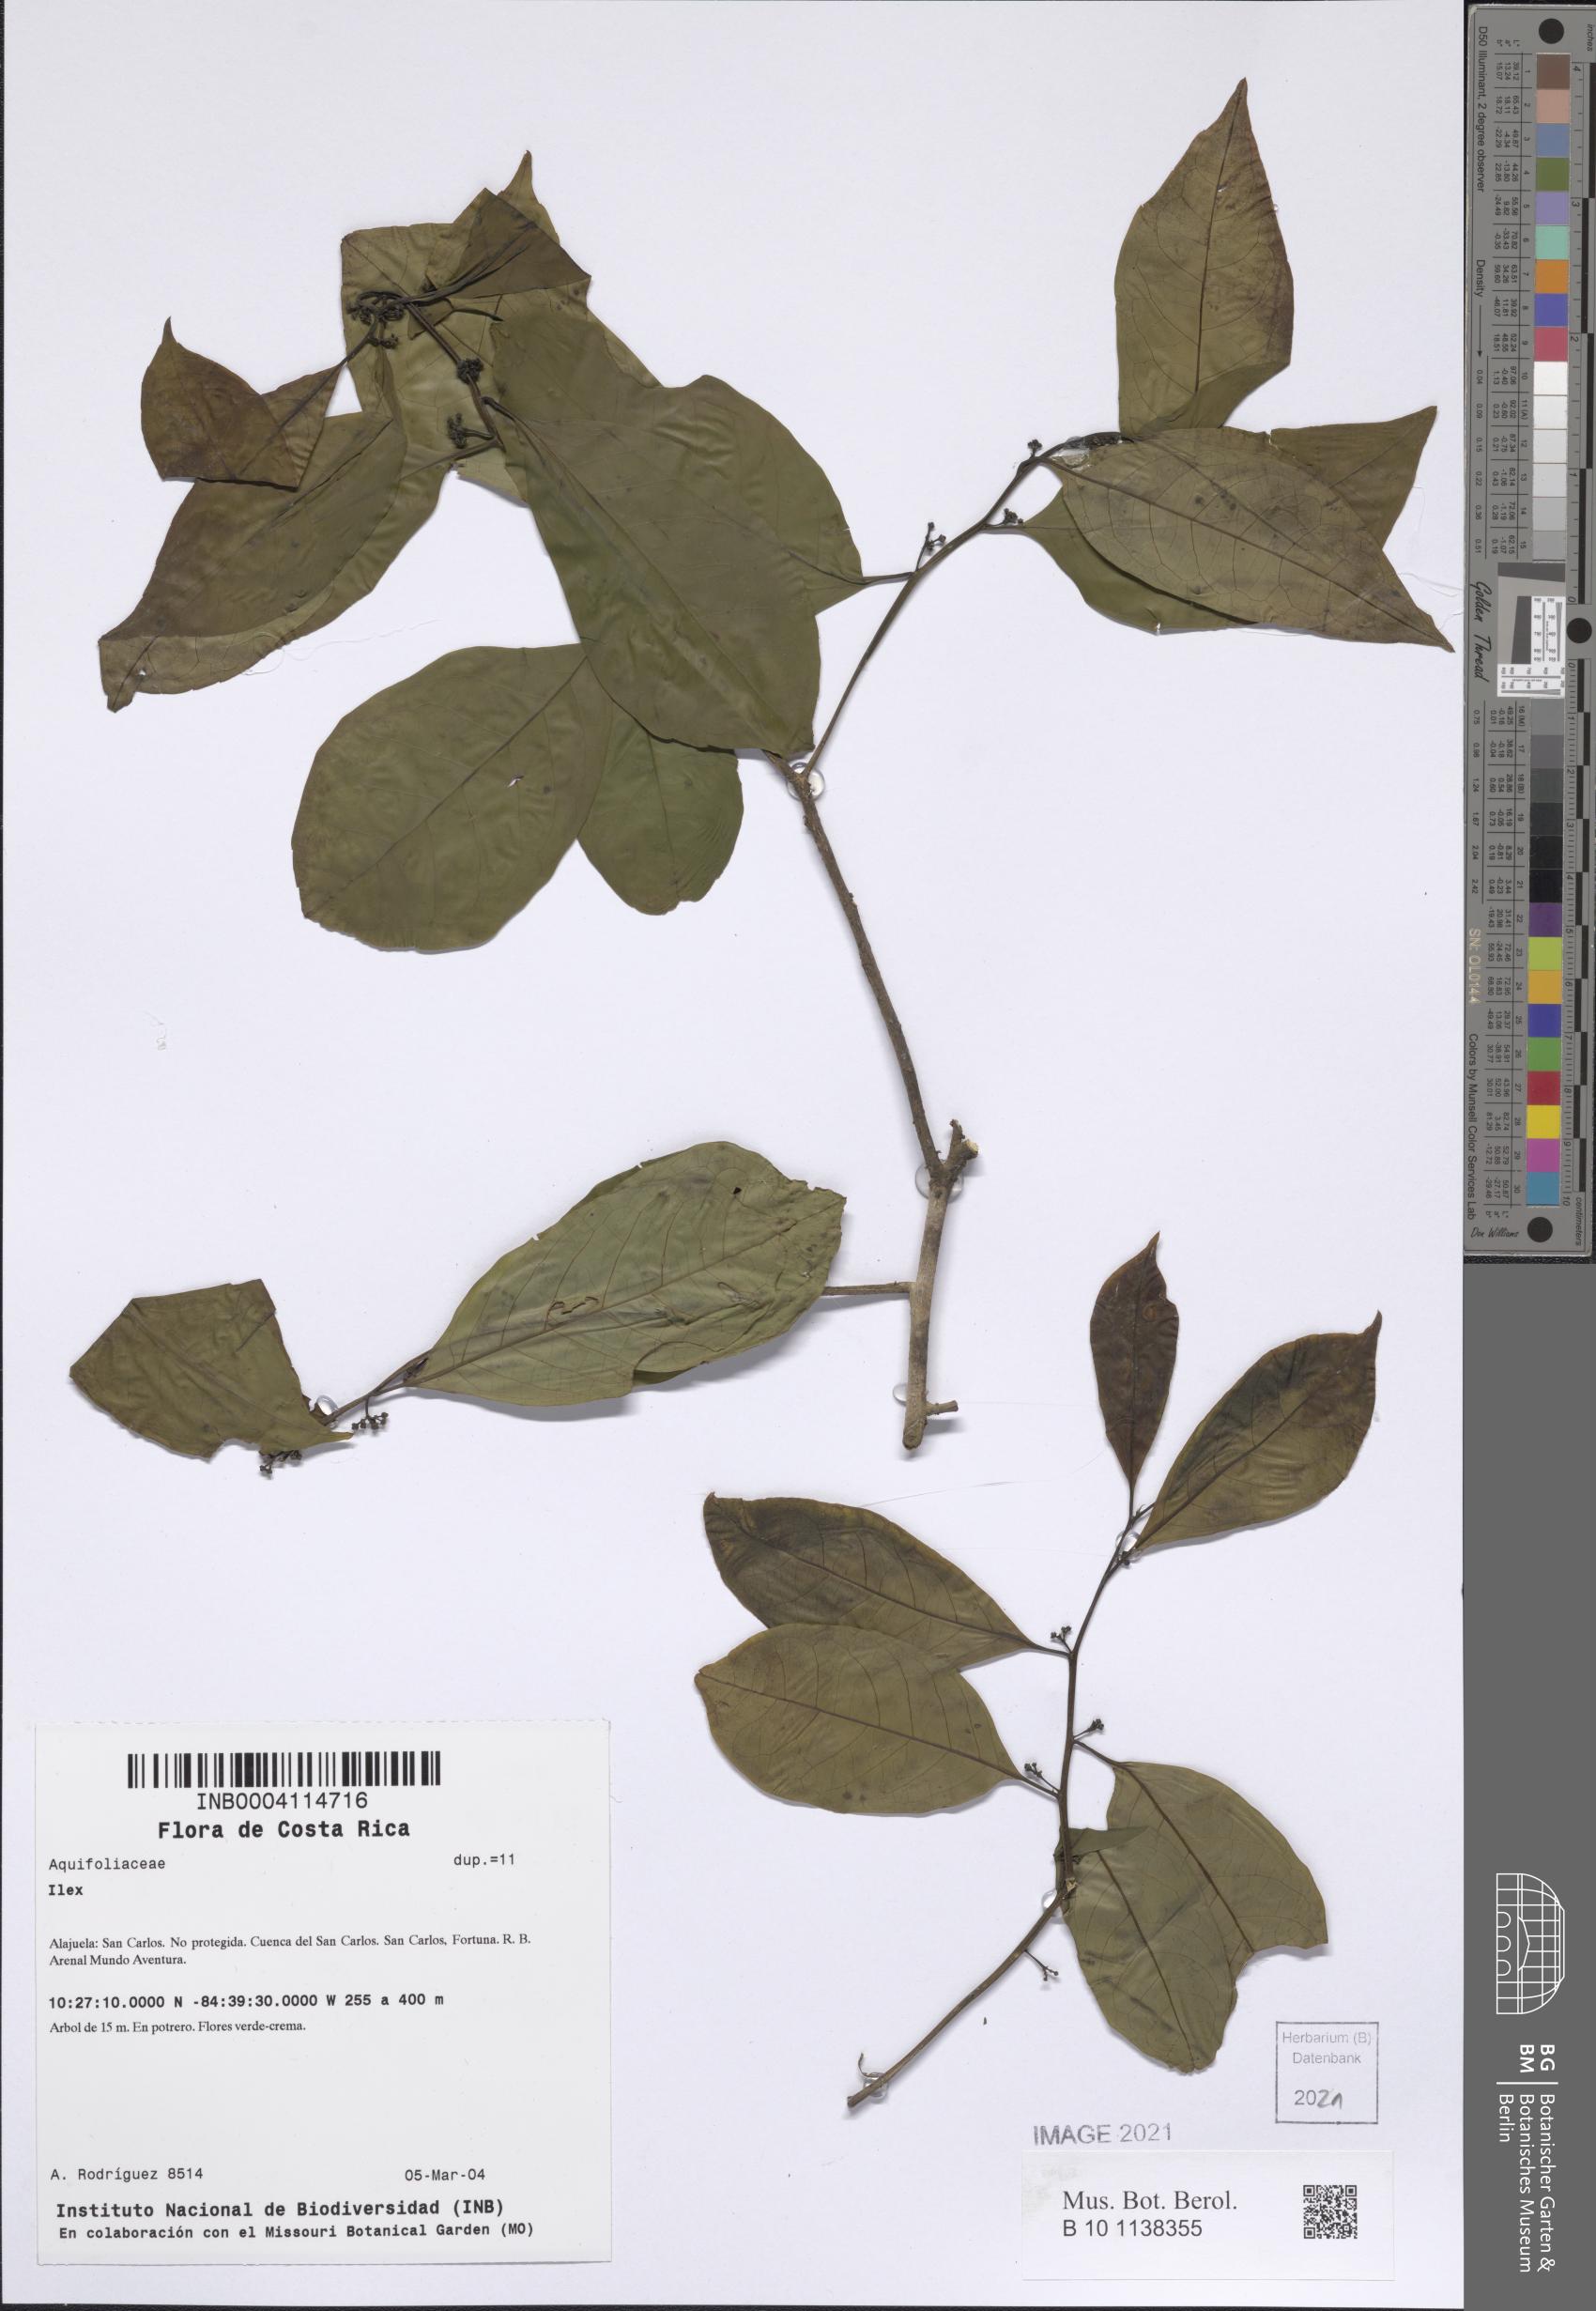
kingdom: Plantae
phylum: Tracheophyta
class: Magnoliopsida
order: Aquifoliales
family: Aquifoliaceae
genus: Ilex
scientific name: Ilex
